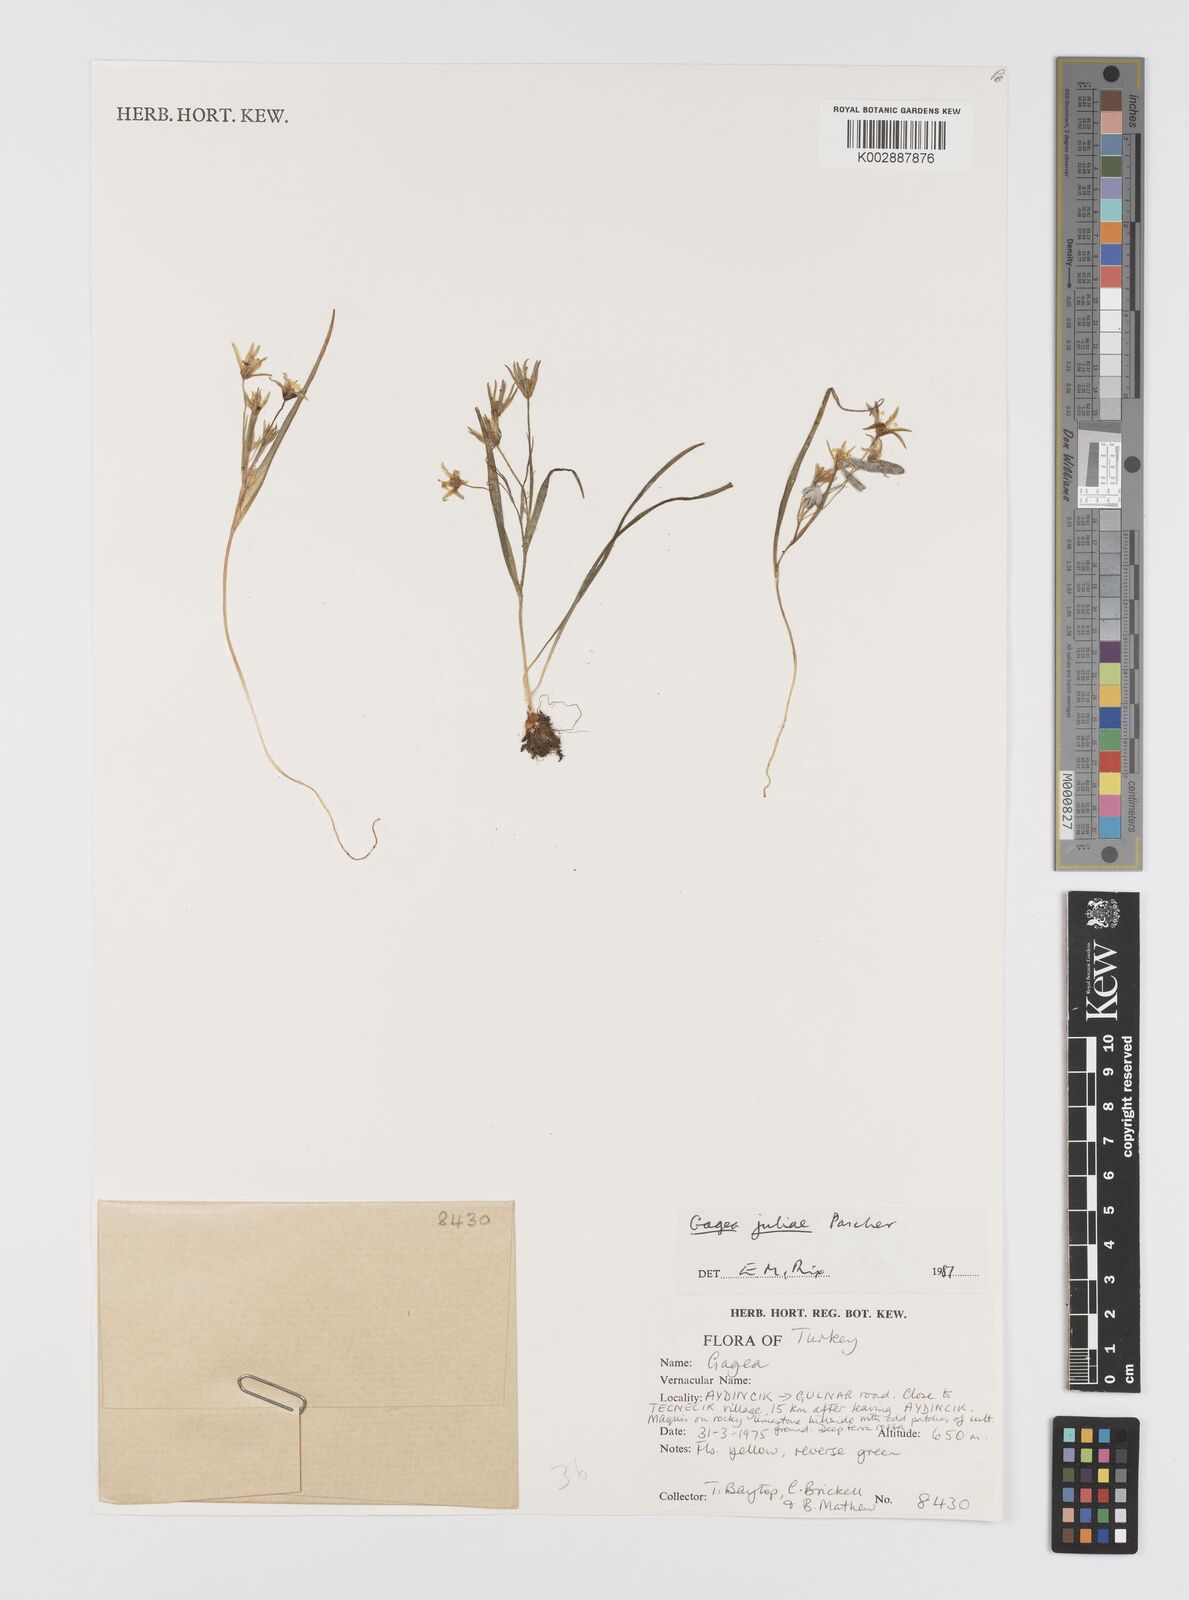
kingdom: Plantae
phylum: Tracheophyta
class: Liliopsida
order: Liliales
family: Liliaceae
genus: Gagea
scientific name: Gagea juliae
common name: Julia’s gagea
